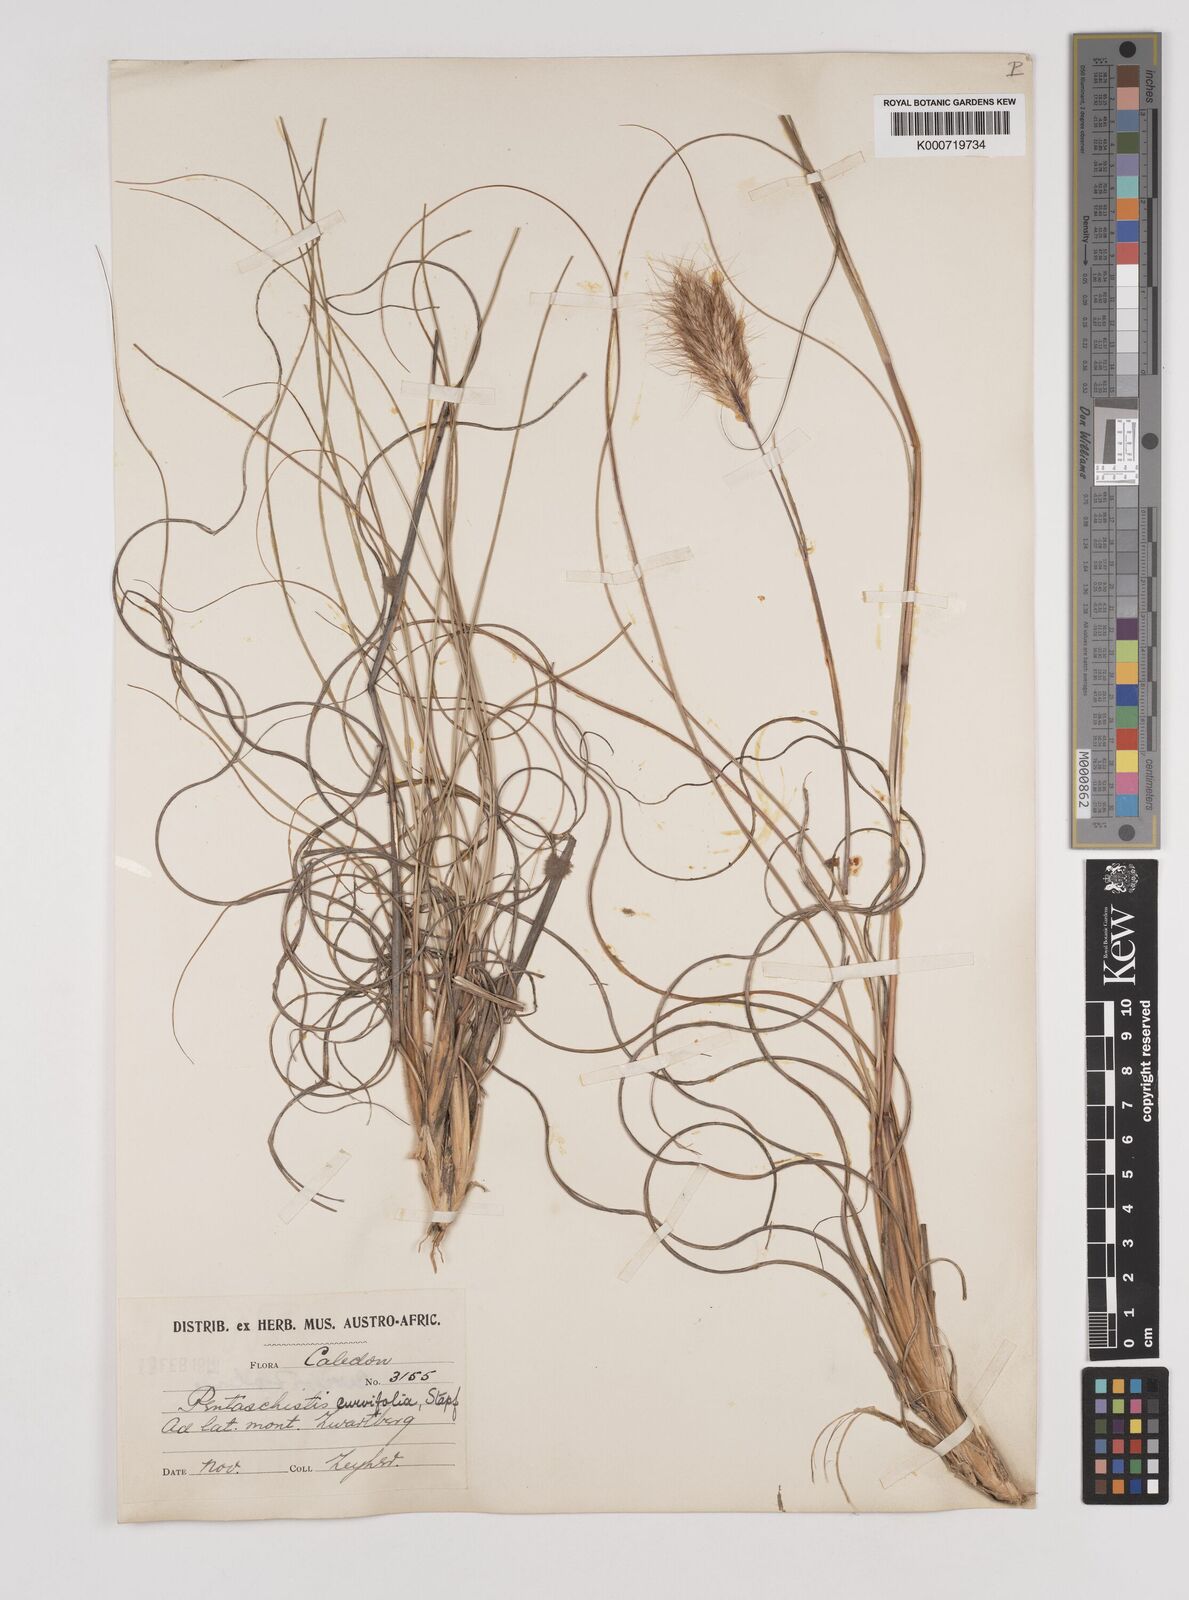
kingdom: Plantae
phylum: Tracheophyta
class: Liliopsida
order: Poales
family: Poaceae
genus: Pentameris
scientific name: Pentameris curvifolia
